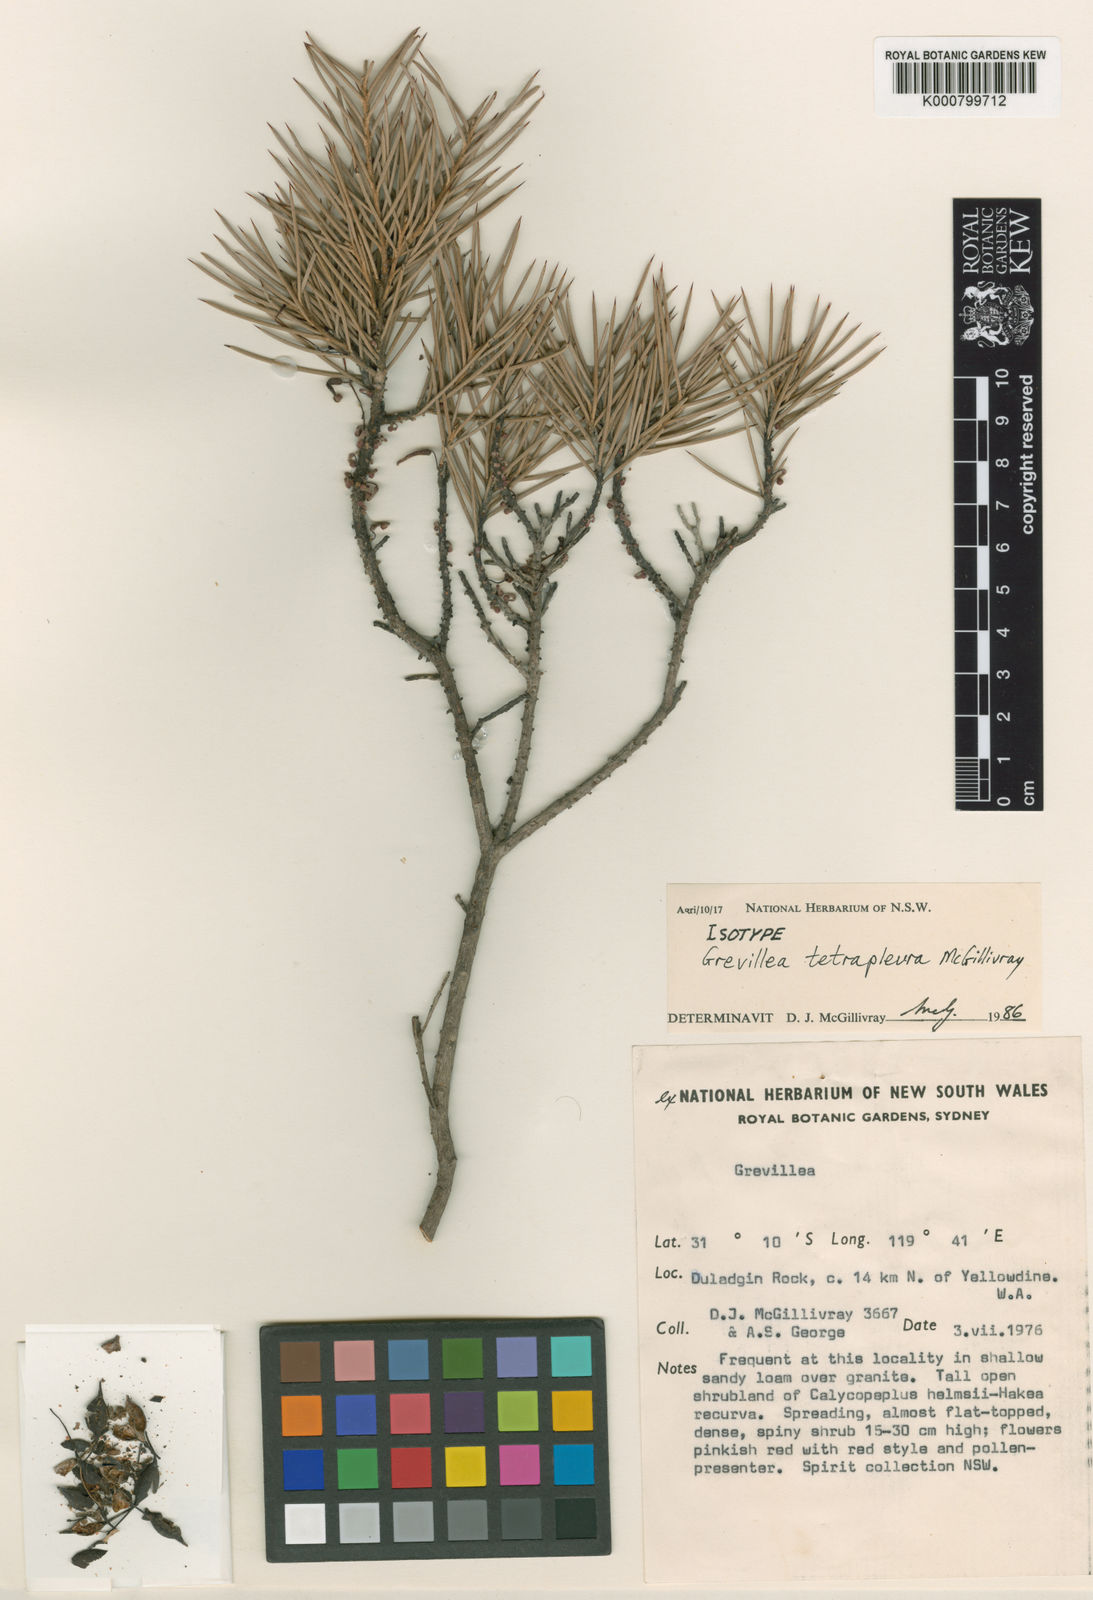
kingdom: Plantae
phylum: Tracheophyta
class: Magnoliopsida
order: Proteales
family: Proteaceae
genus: Grevillea
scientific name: Grevillea tetrapleura
